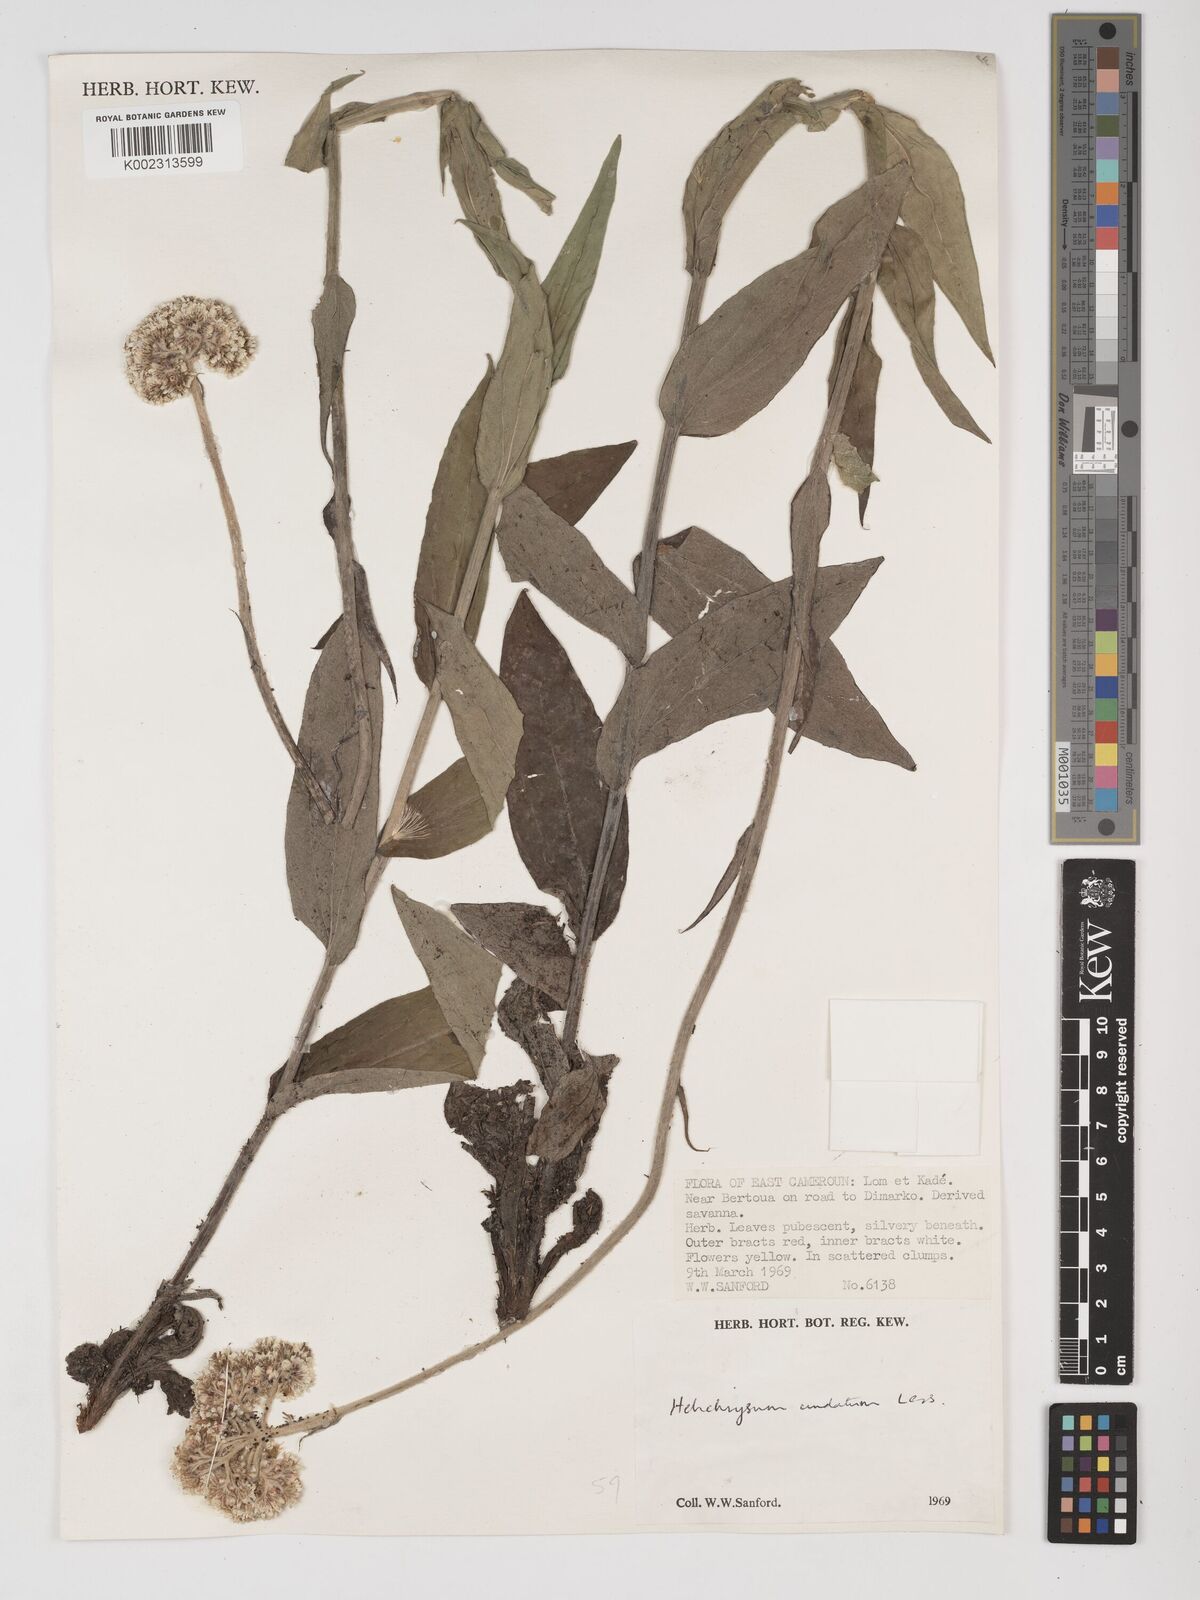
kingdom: Plantae
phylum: Tracheophyta
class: Magnoliopsida
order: Asterales
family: Asteraceae
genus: Helichrysum
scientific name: Helichrysum nudifolium
